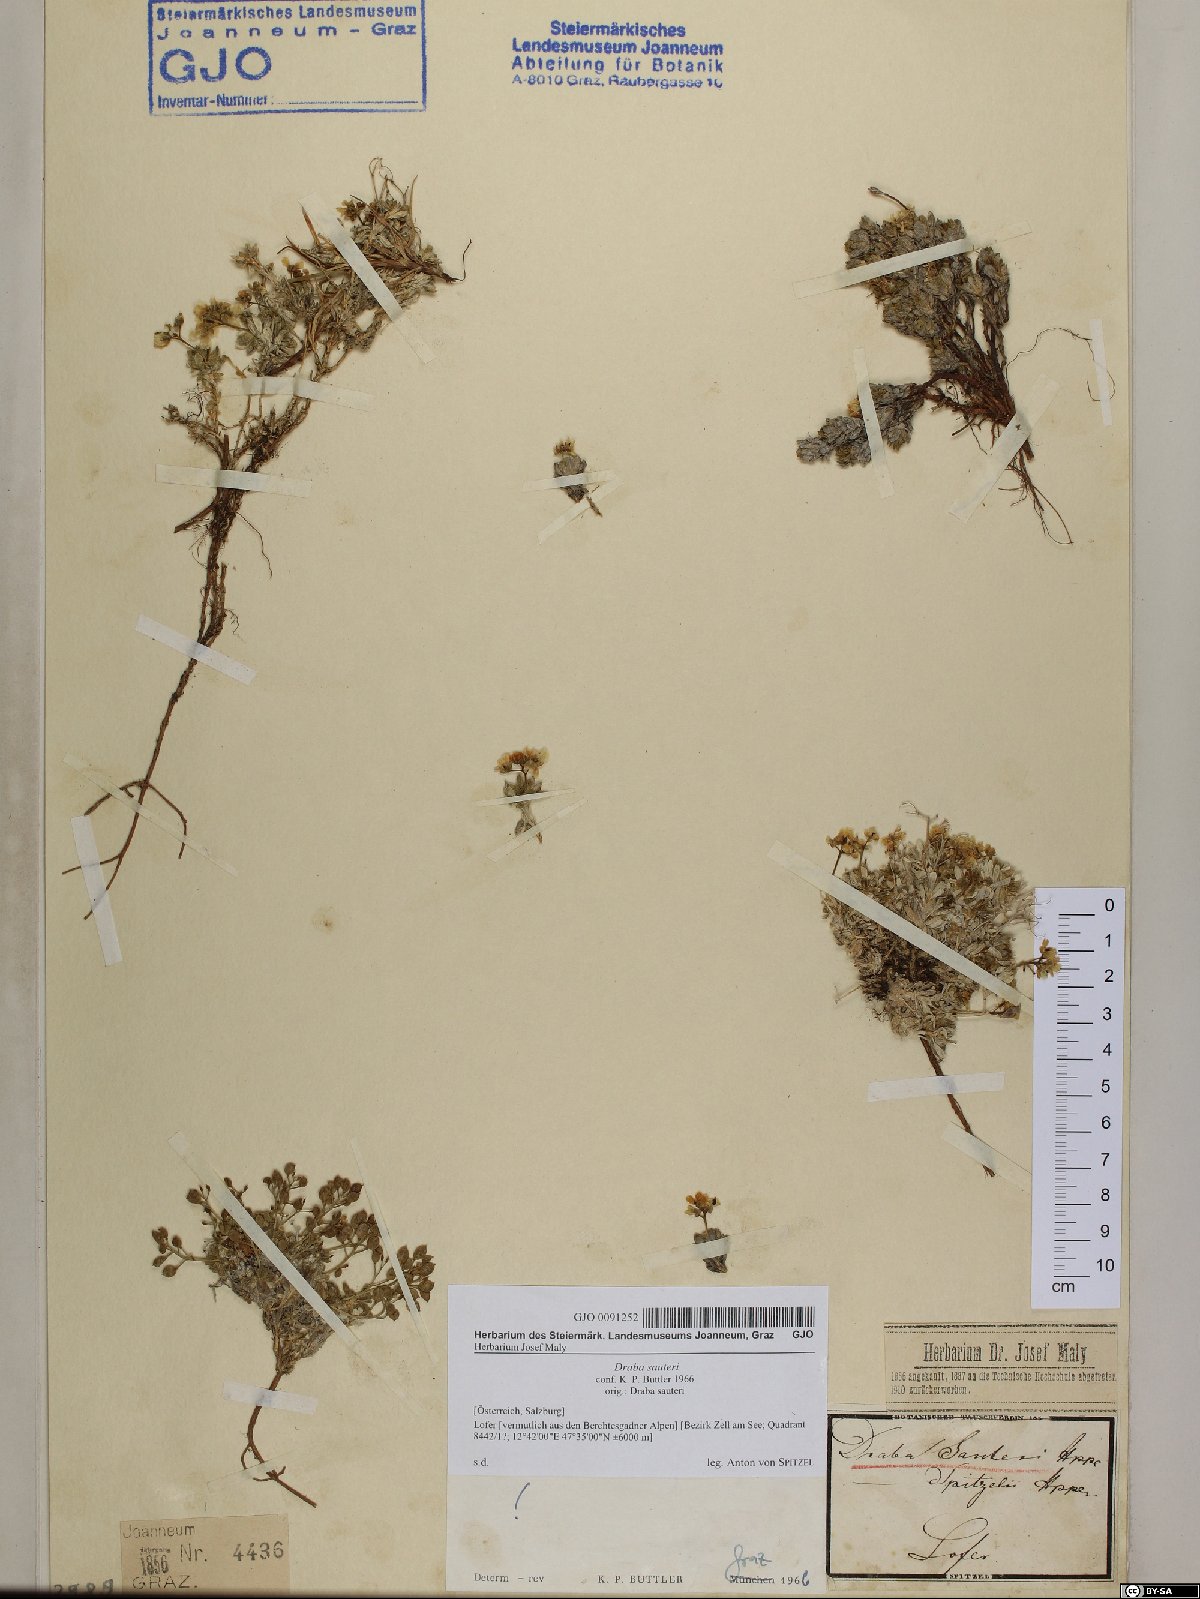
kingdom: Plantae
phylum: Tracheophyta
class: Magnoliopsida
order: Brassicales
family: Brassicaceae
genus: Draba
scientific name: Draba sauteri
